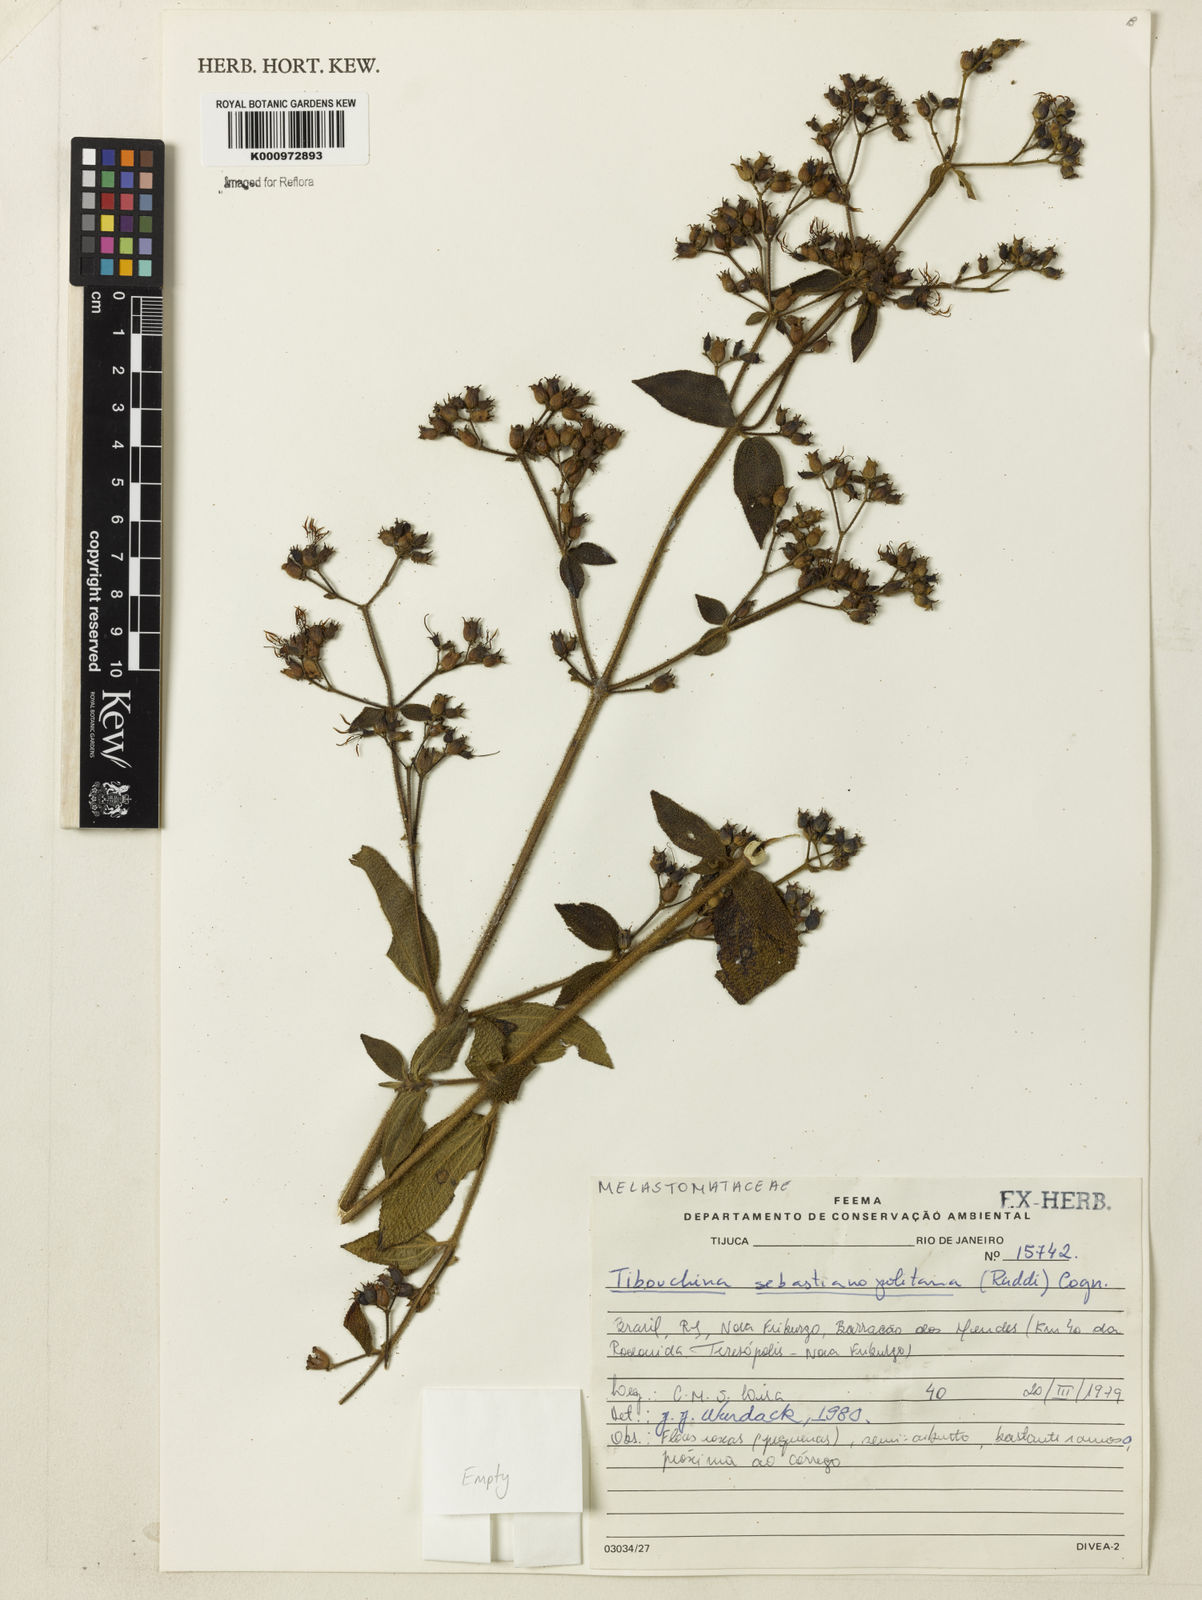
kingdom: Plantae
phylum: Tracheophyta
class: Magnoliopsida
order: Myrtales
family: Melastomataceae
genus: Chaetogastra
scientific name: Chaetogastra sebastianopolitana
